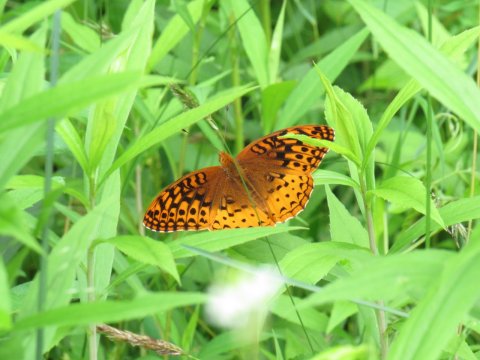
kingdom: Animalia
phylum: Arthropoda
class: Insecta
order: Lepidoptera
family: Nymphalidae
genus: Speyeria
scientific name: Speyeria cybele
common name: Great Spangled Fritillary
